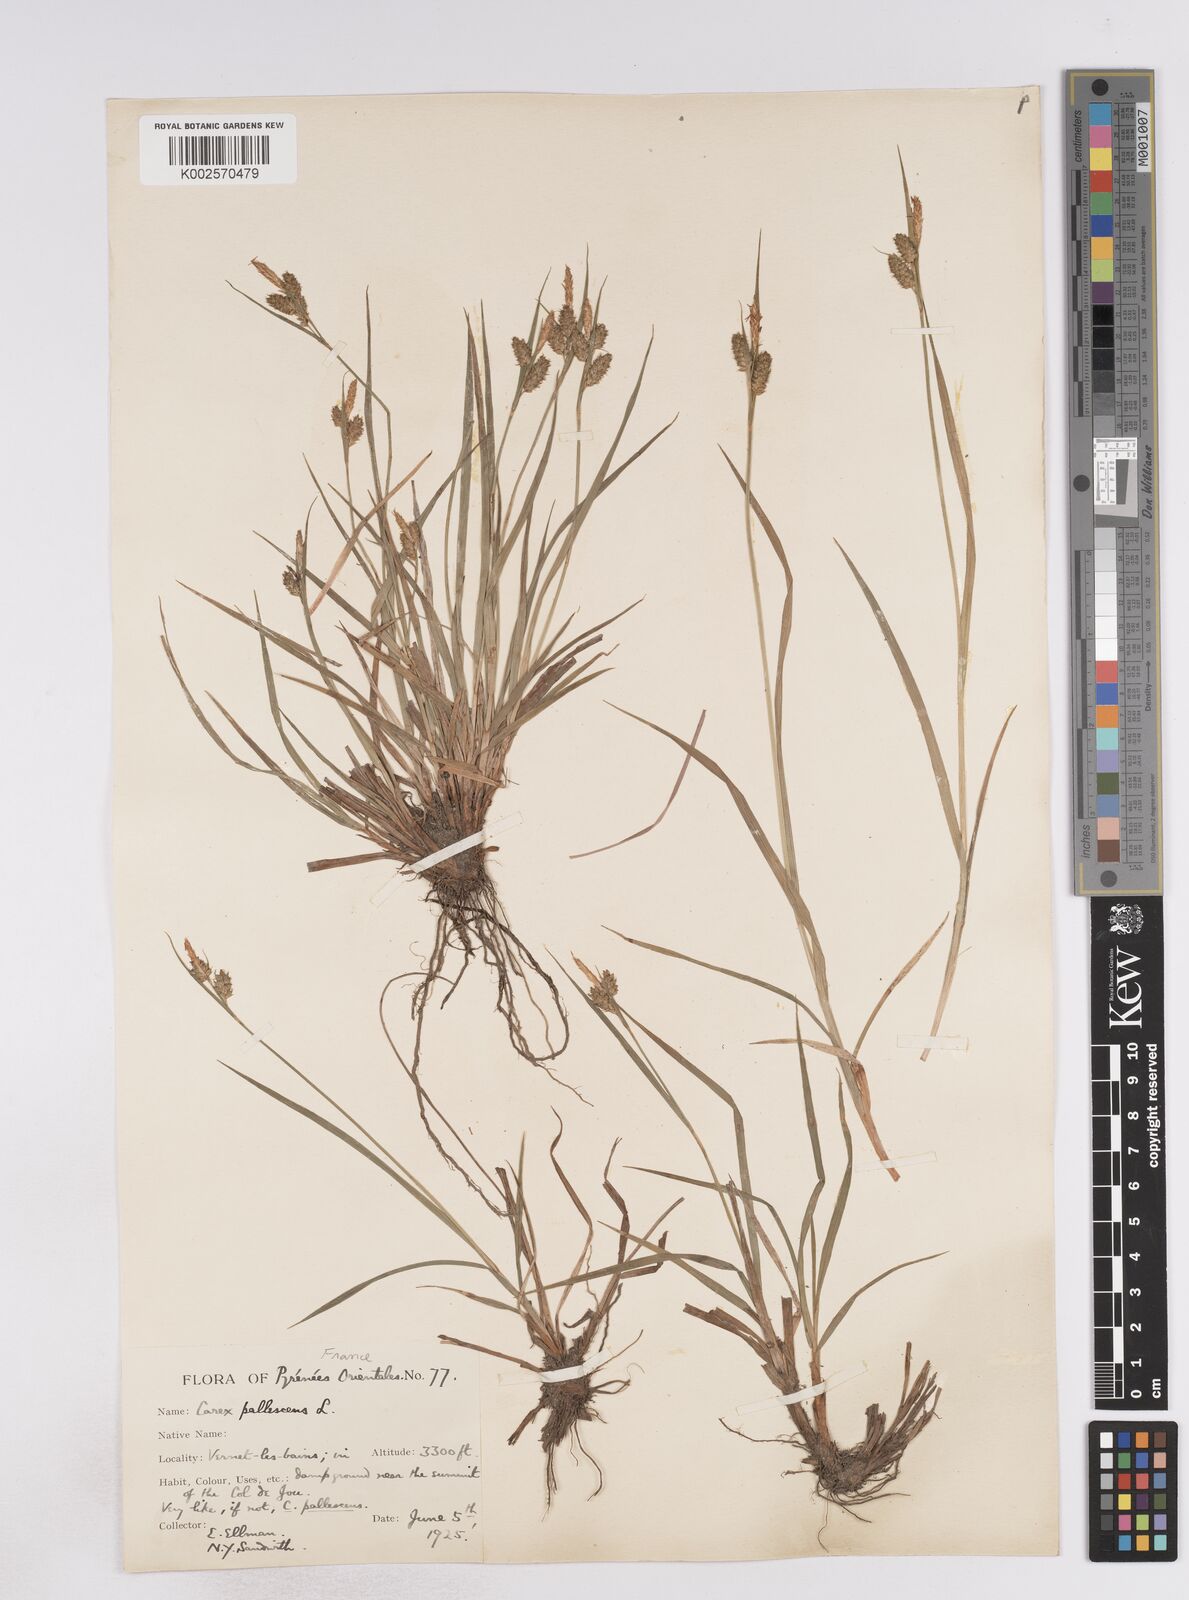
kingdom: Plantae
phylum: Tracheophyta
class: Liliopsida
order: Poales
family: Cyperaceae
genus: Carex
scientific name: Carex pallescens
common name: Pale sedge
